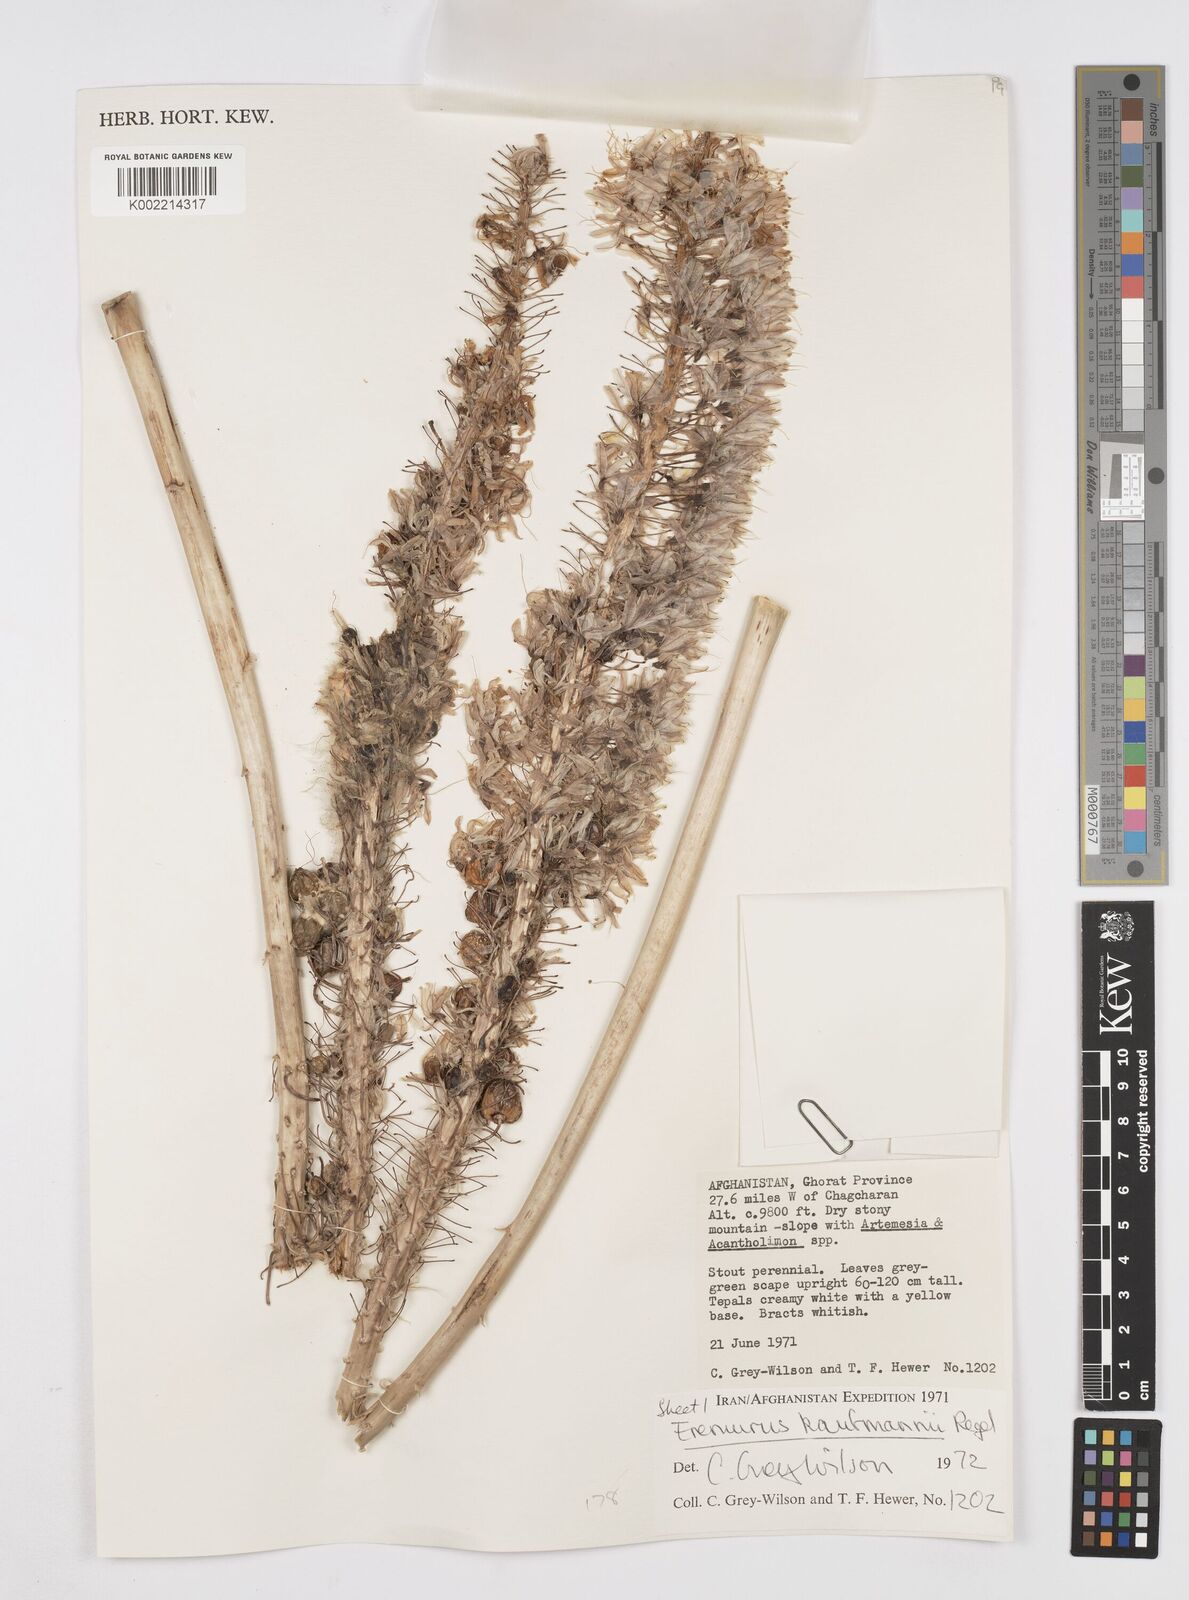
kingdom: Plantae
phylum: Tracheophyta
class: Liliopsida
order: Asparagales
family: Asphodelaceae
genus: Eremurus
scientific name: Eremurus kaufmannii
